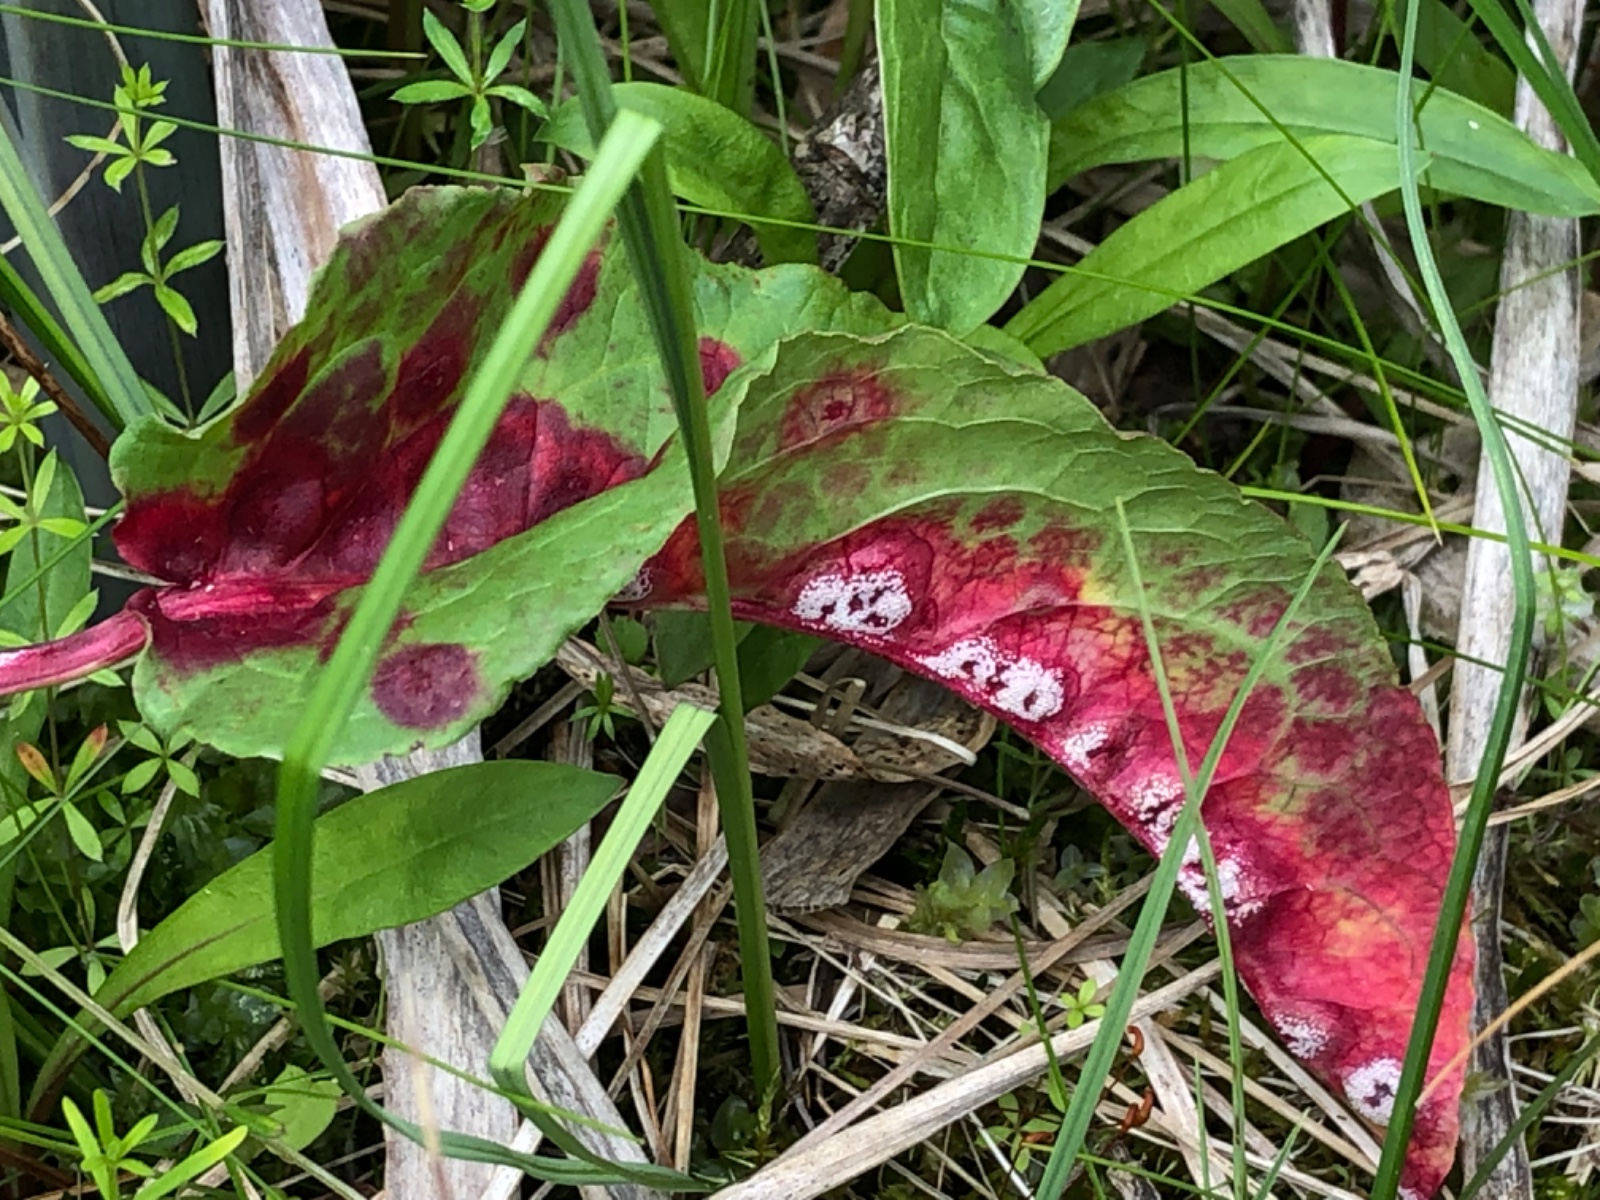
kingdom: Fungi
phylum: Basidiomycota
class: Pucciniomycetes
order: Pucciniales
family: Pucciniaceae
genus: Puccinia
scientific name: Puccinia phragmitis
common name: tagrør-tvecellerust
